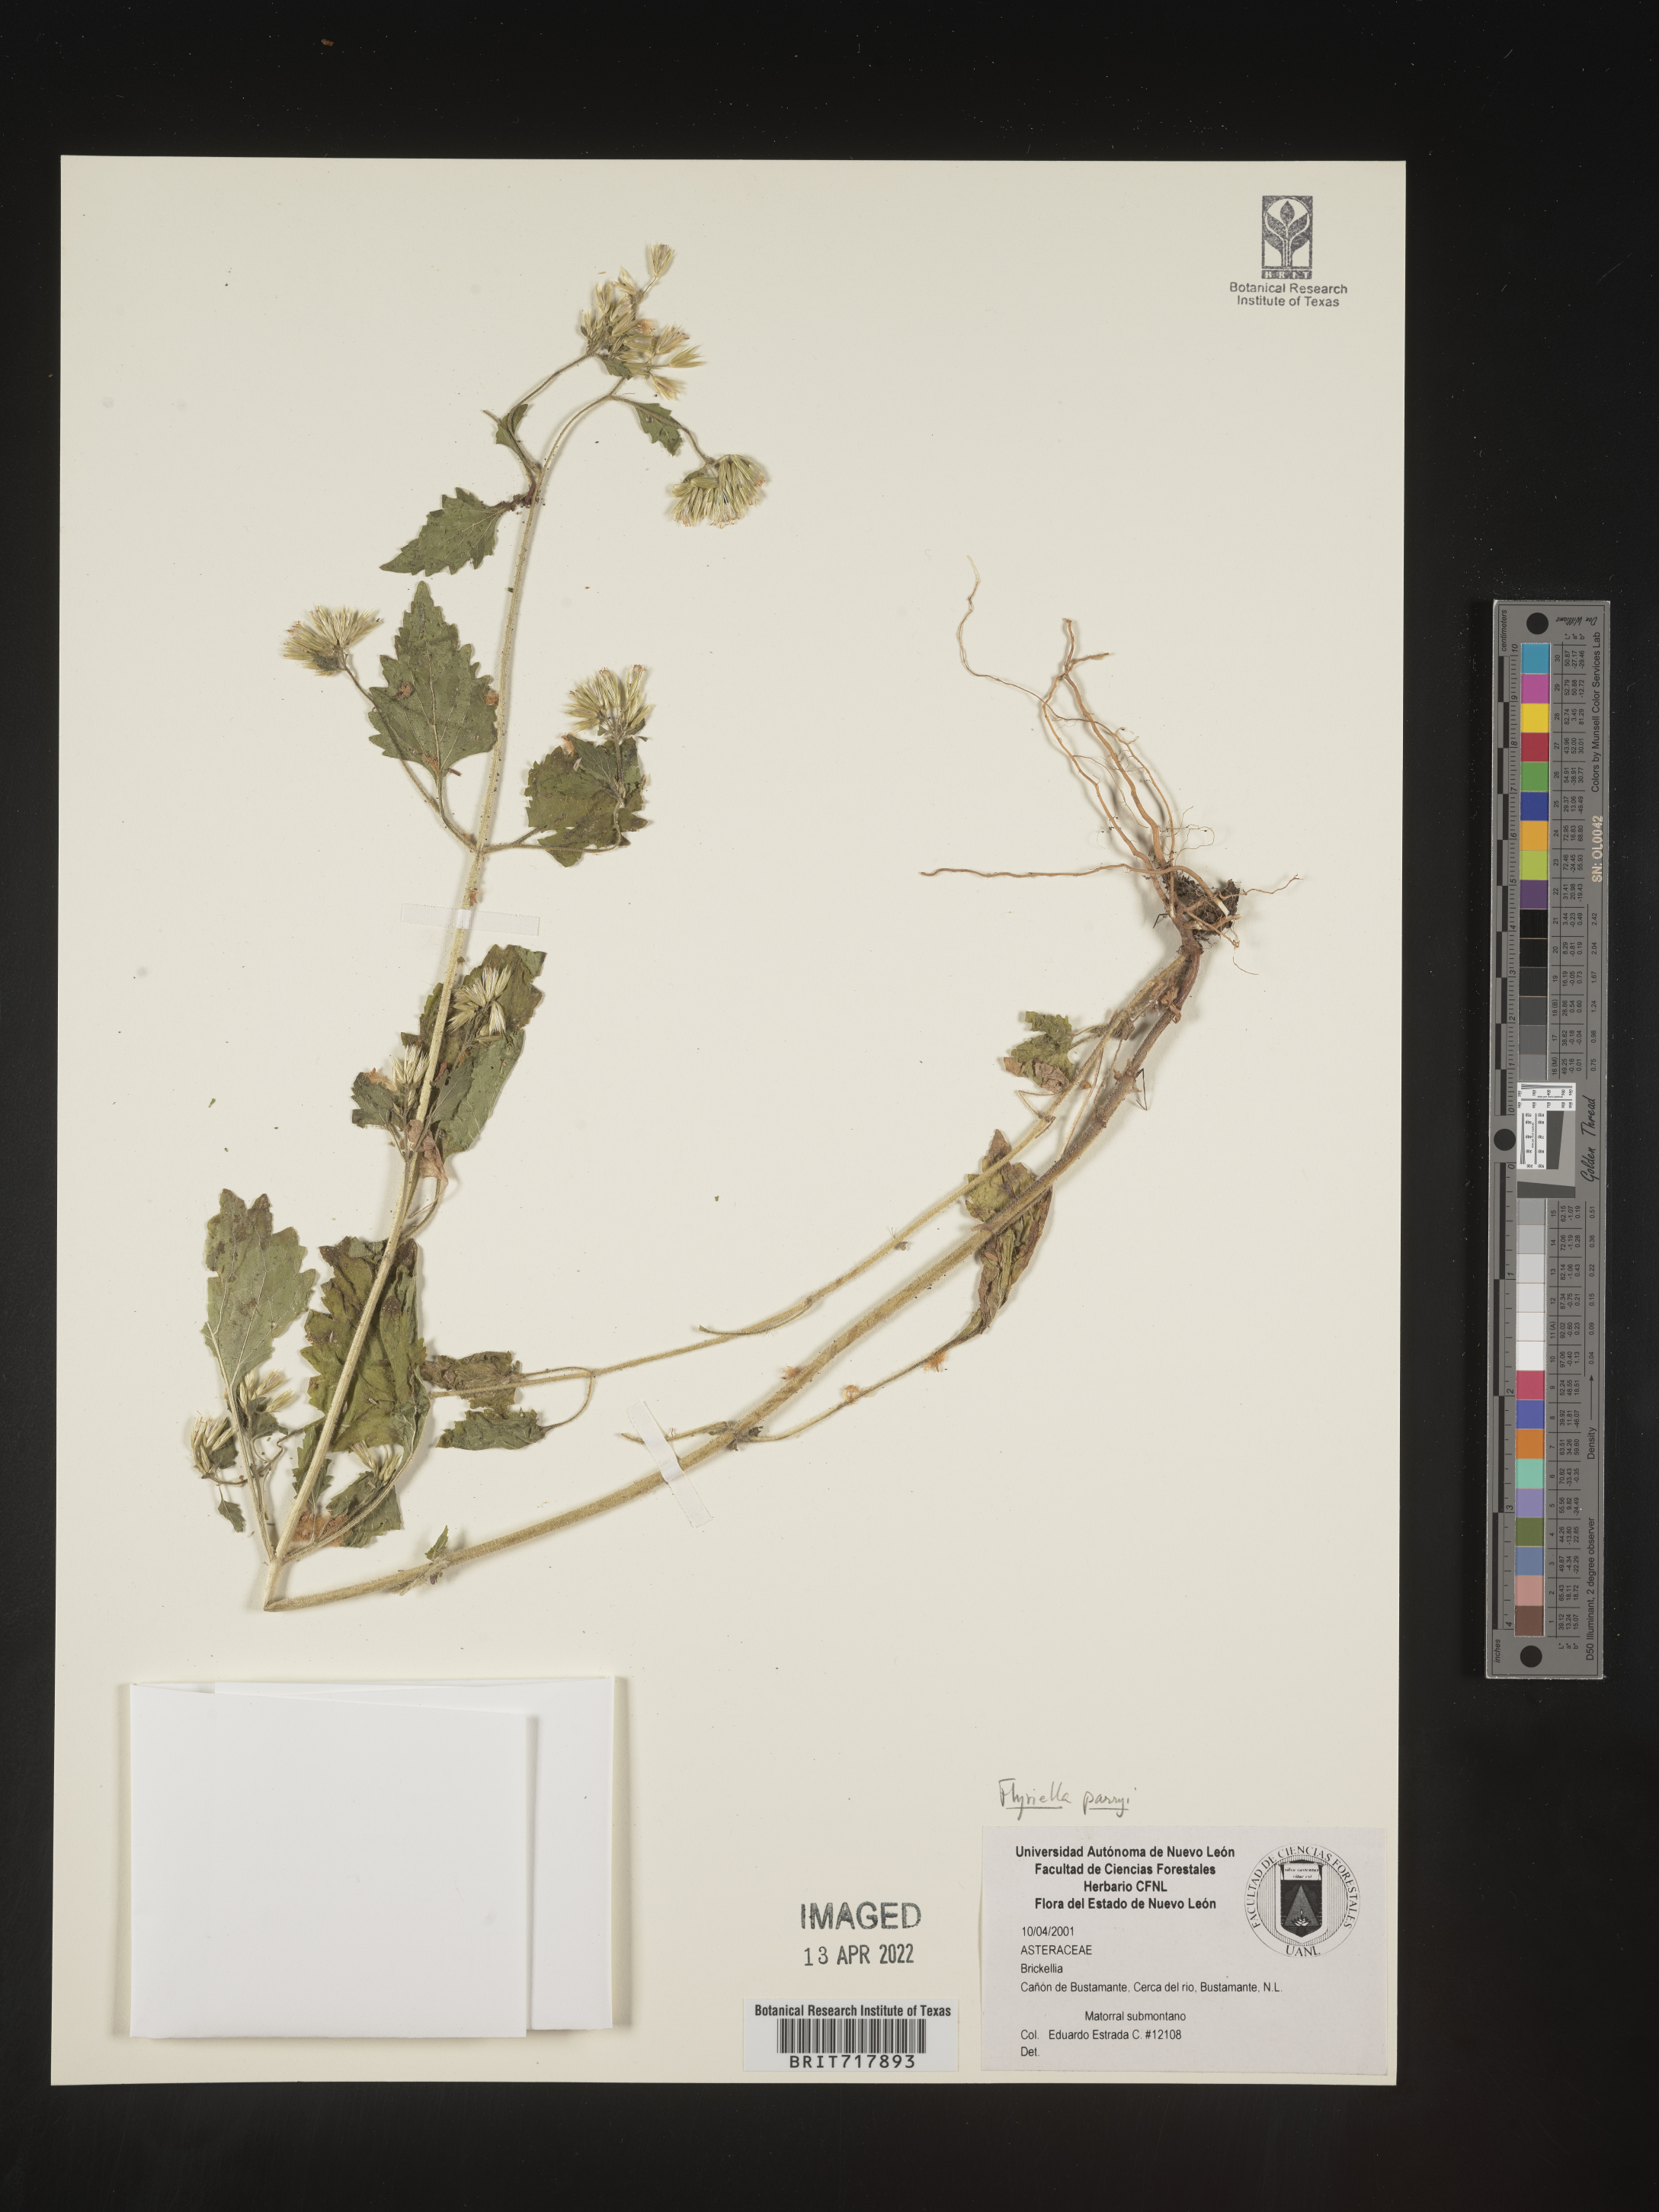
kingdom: Plantae
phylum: Tracheophyta
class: Magnoliopsida
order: Asterales
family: Asteraceae
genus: Flyriella
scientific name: Flyriella
